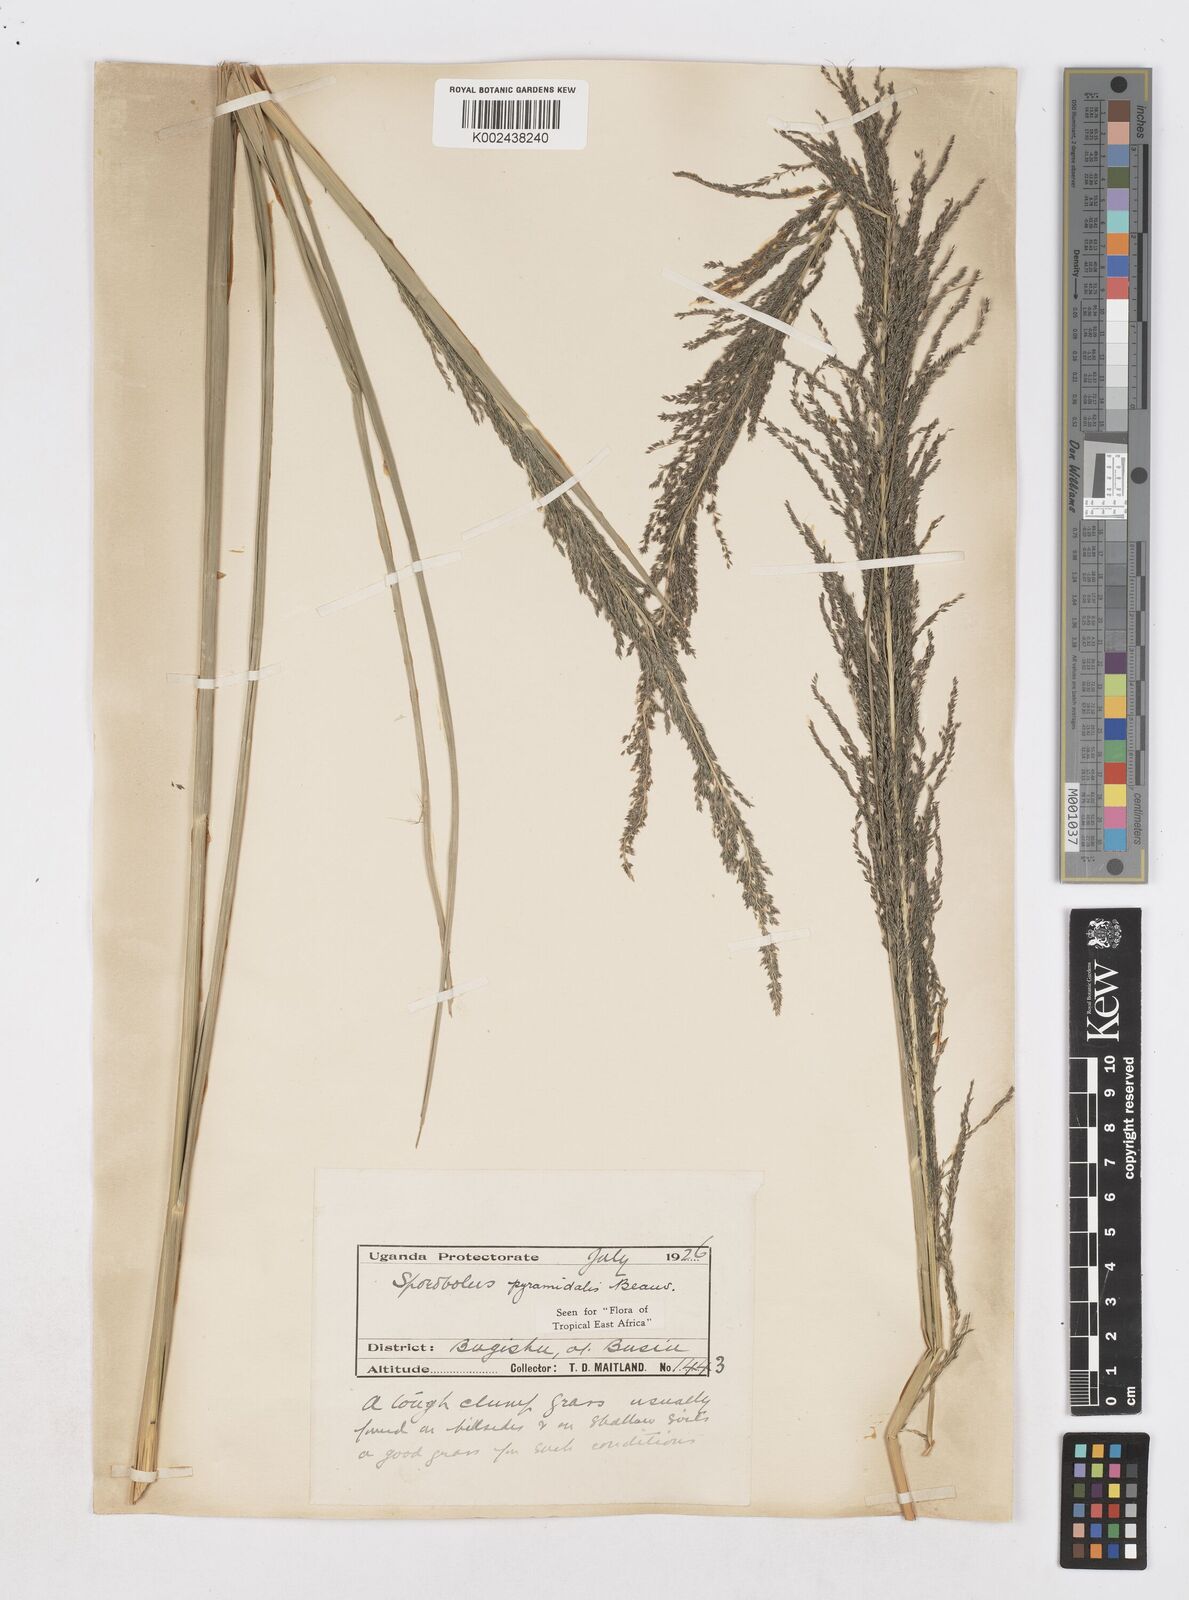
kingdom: Plantae
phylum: Tracheophyta
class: Liliopsida
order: Poales
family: Poaceae
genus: Sporobolus
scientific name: Sporobolus pyramidalis
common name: West indian dropseed
